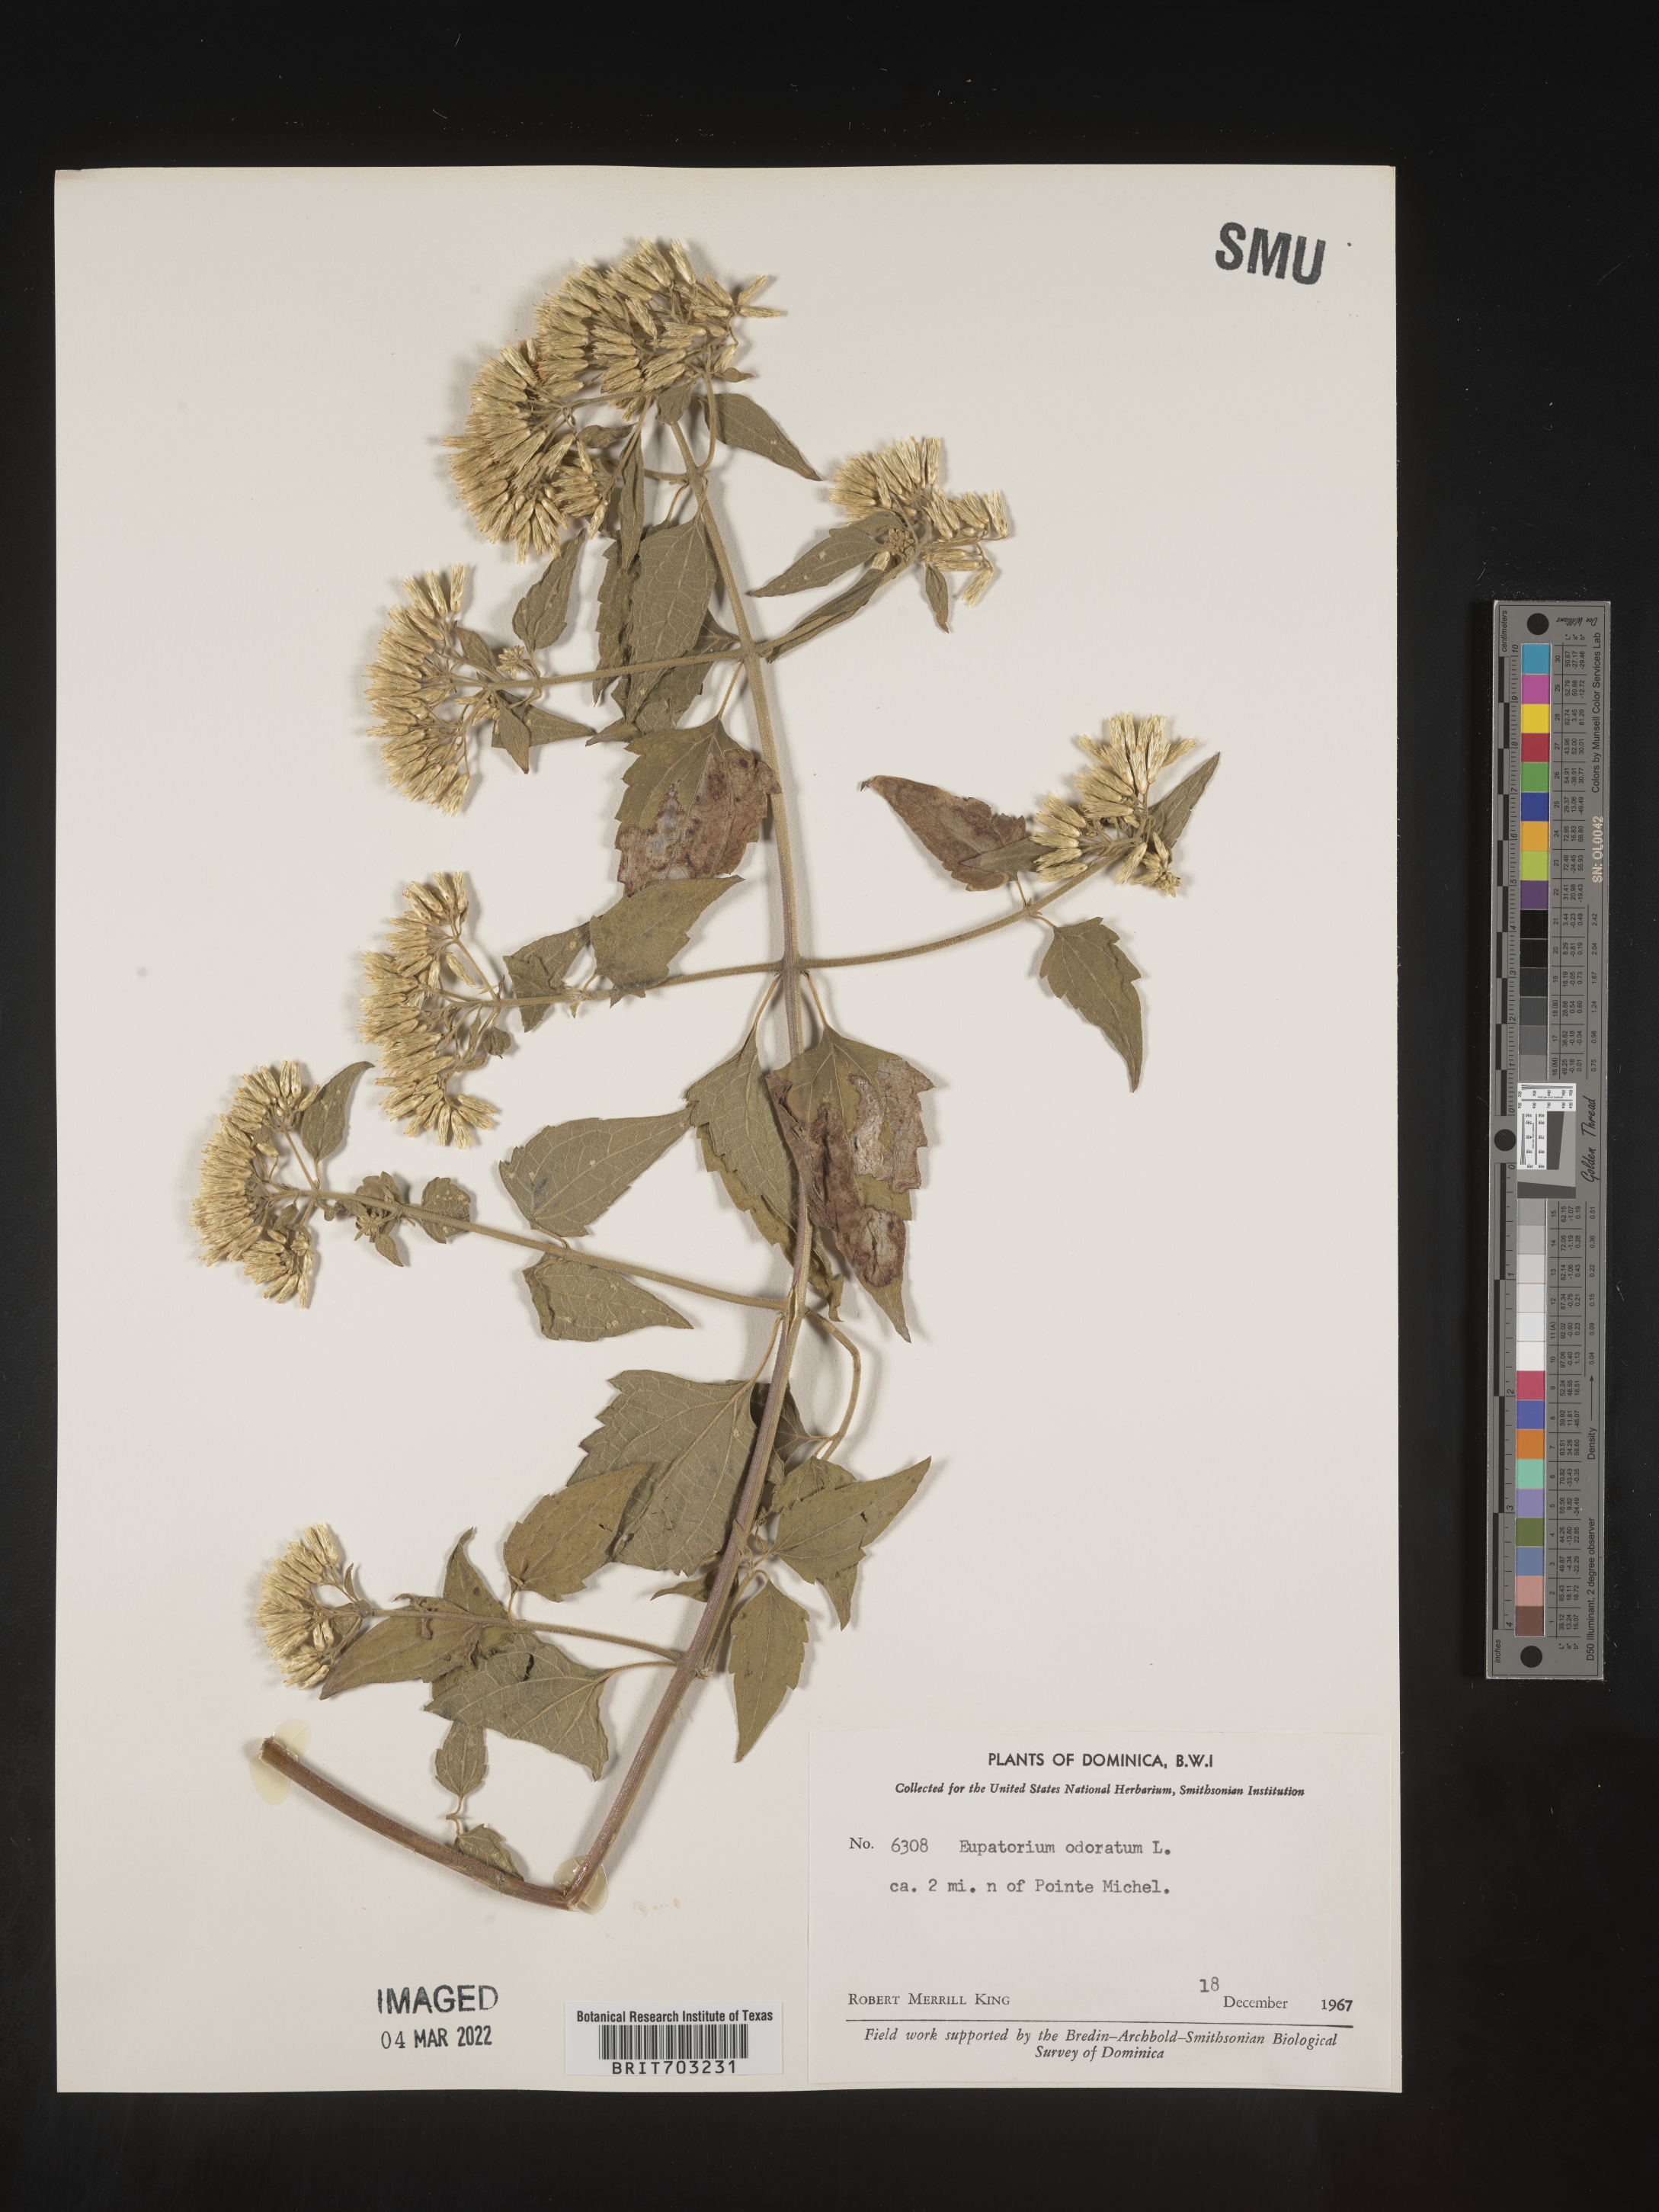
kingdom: Plantae
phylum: Tracheophyta
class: Magnoliopsida
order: Asterales
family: Asteraceae
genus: Eupatorium
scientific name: Eupatorium
